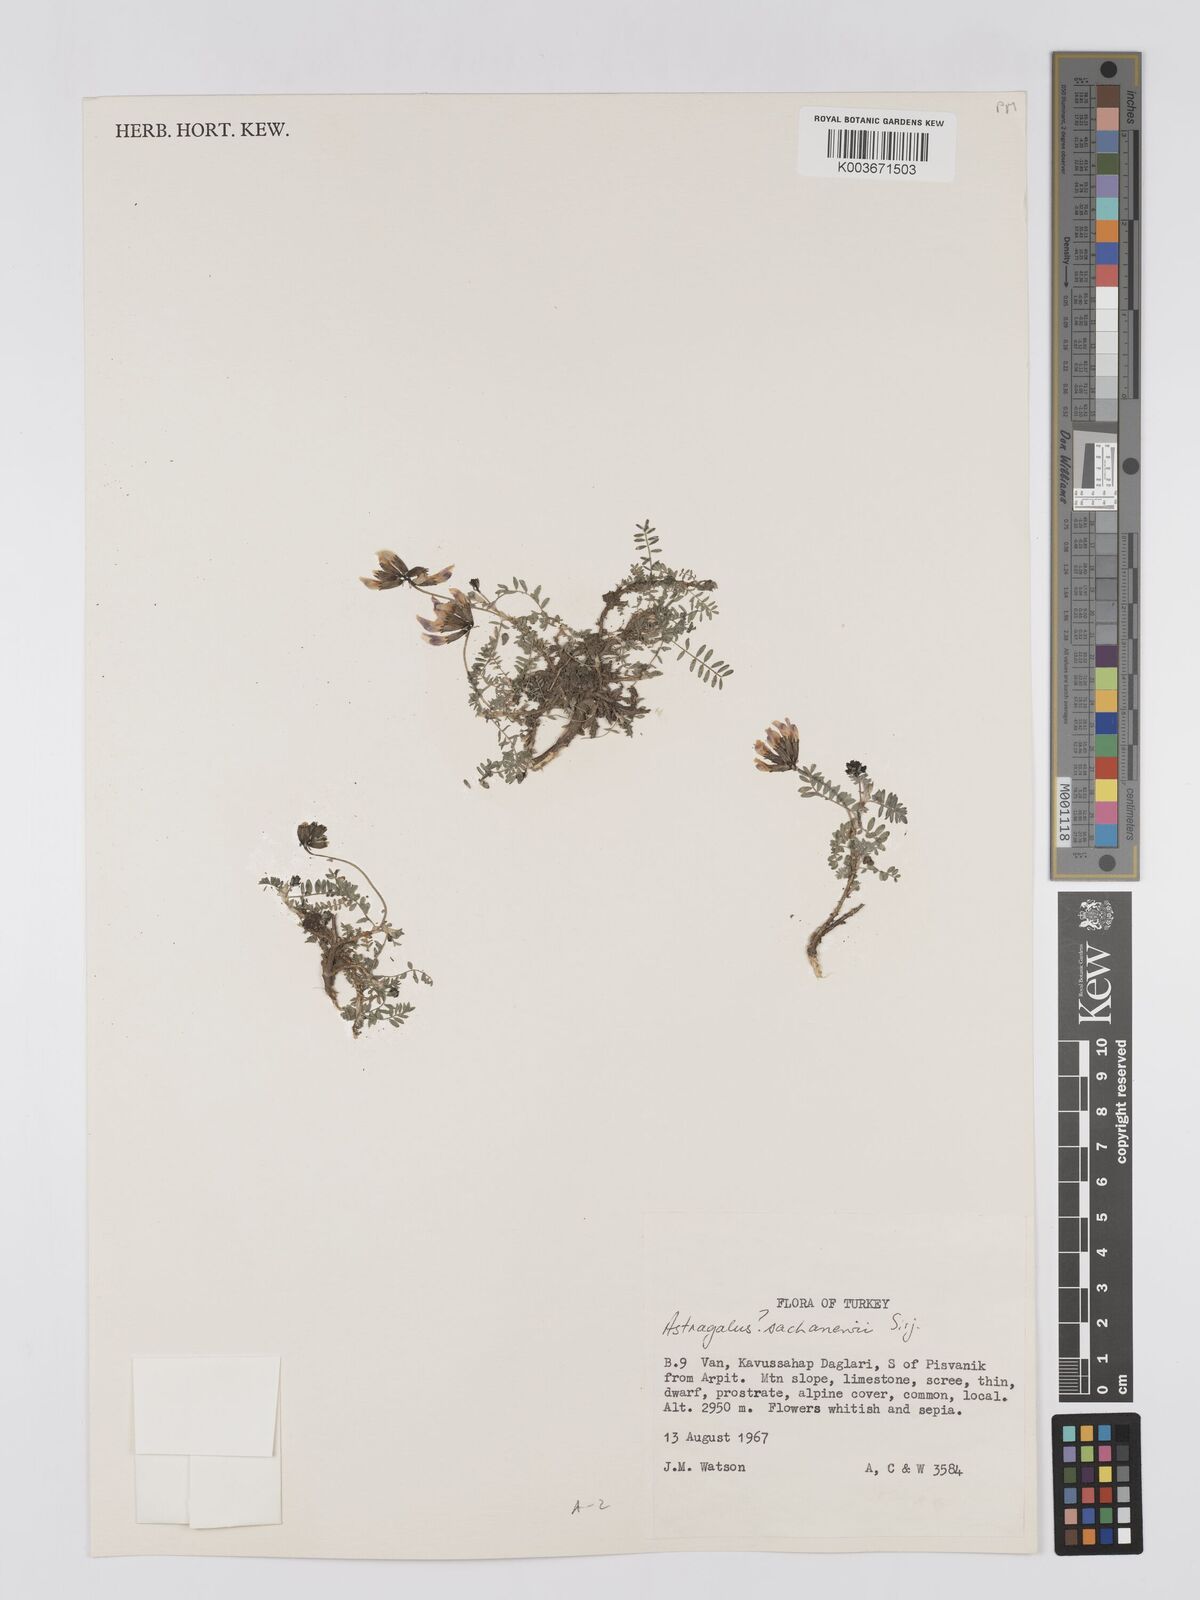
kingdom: Plantae
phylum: Tracheophyta
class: Magnoliopsida
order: Fabales
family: Fabaceae
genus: Astragalus
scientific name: Astragalus sachanewii
